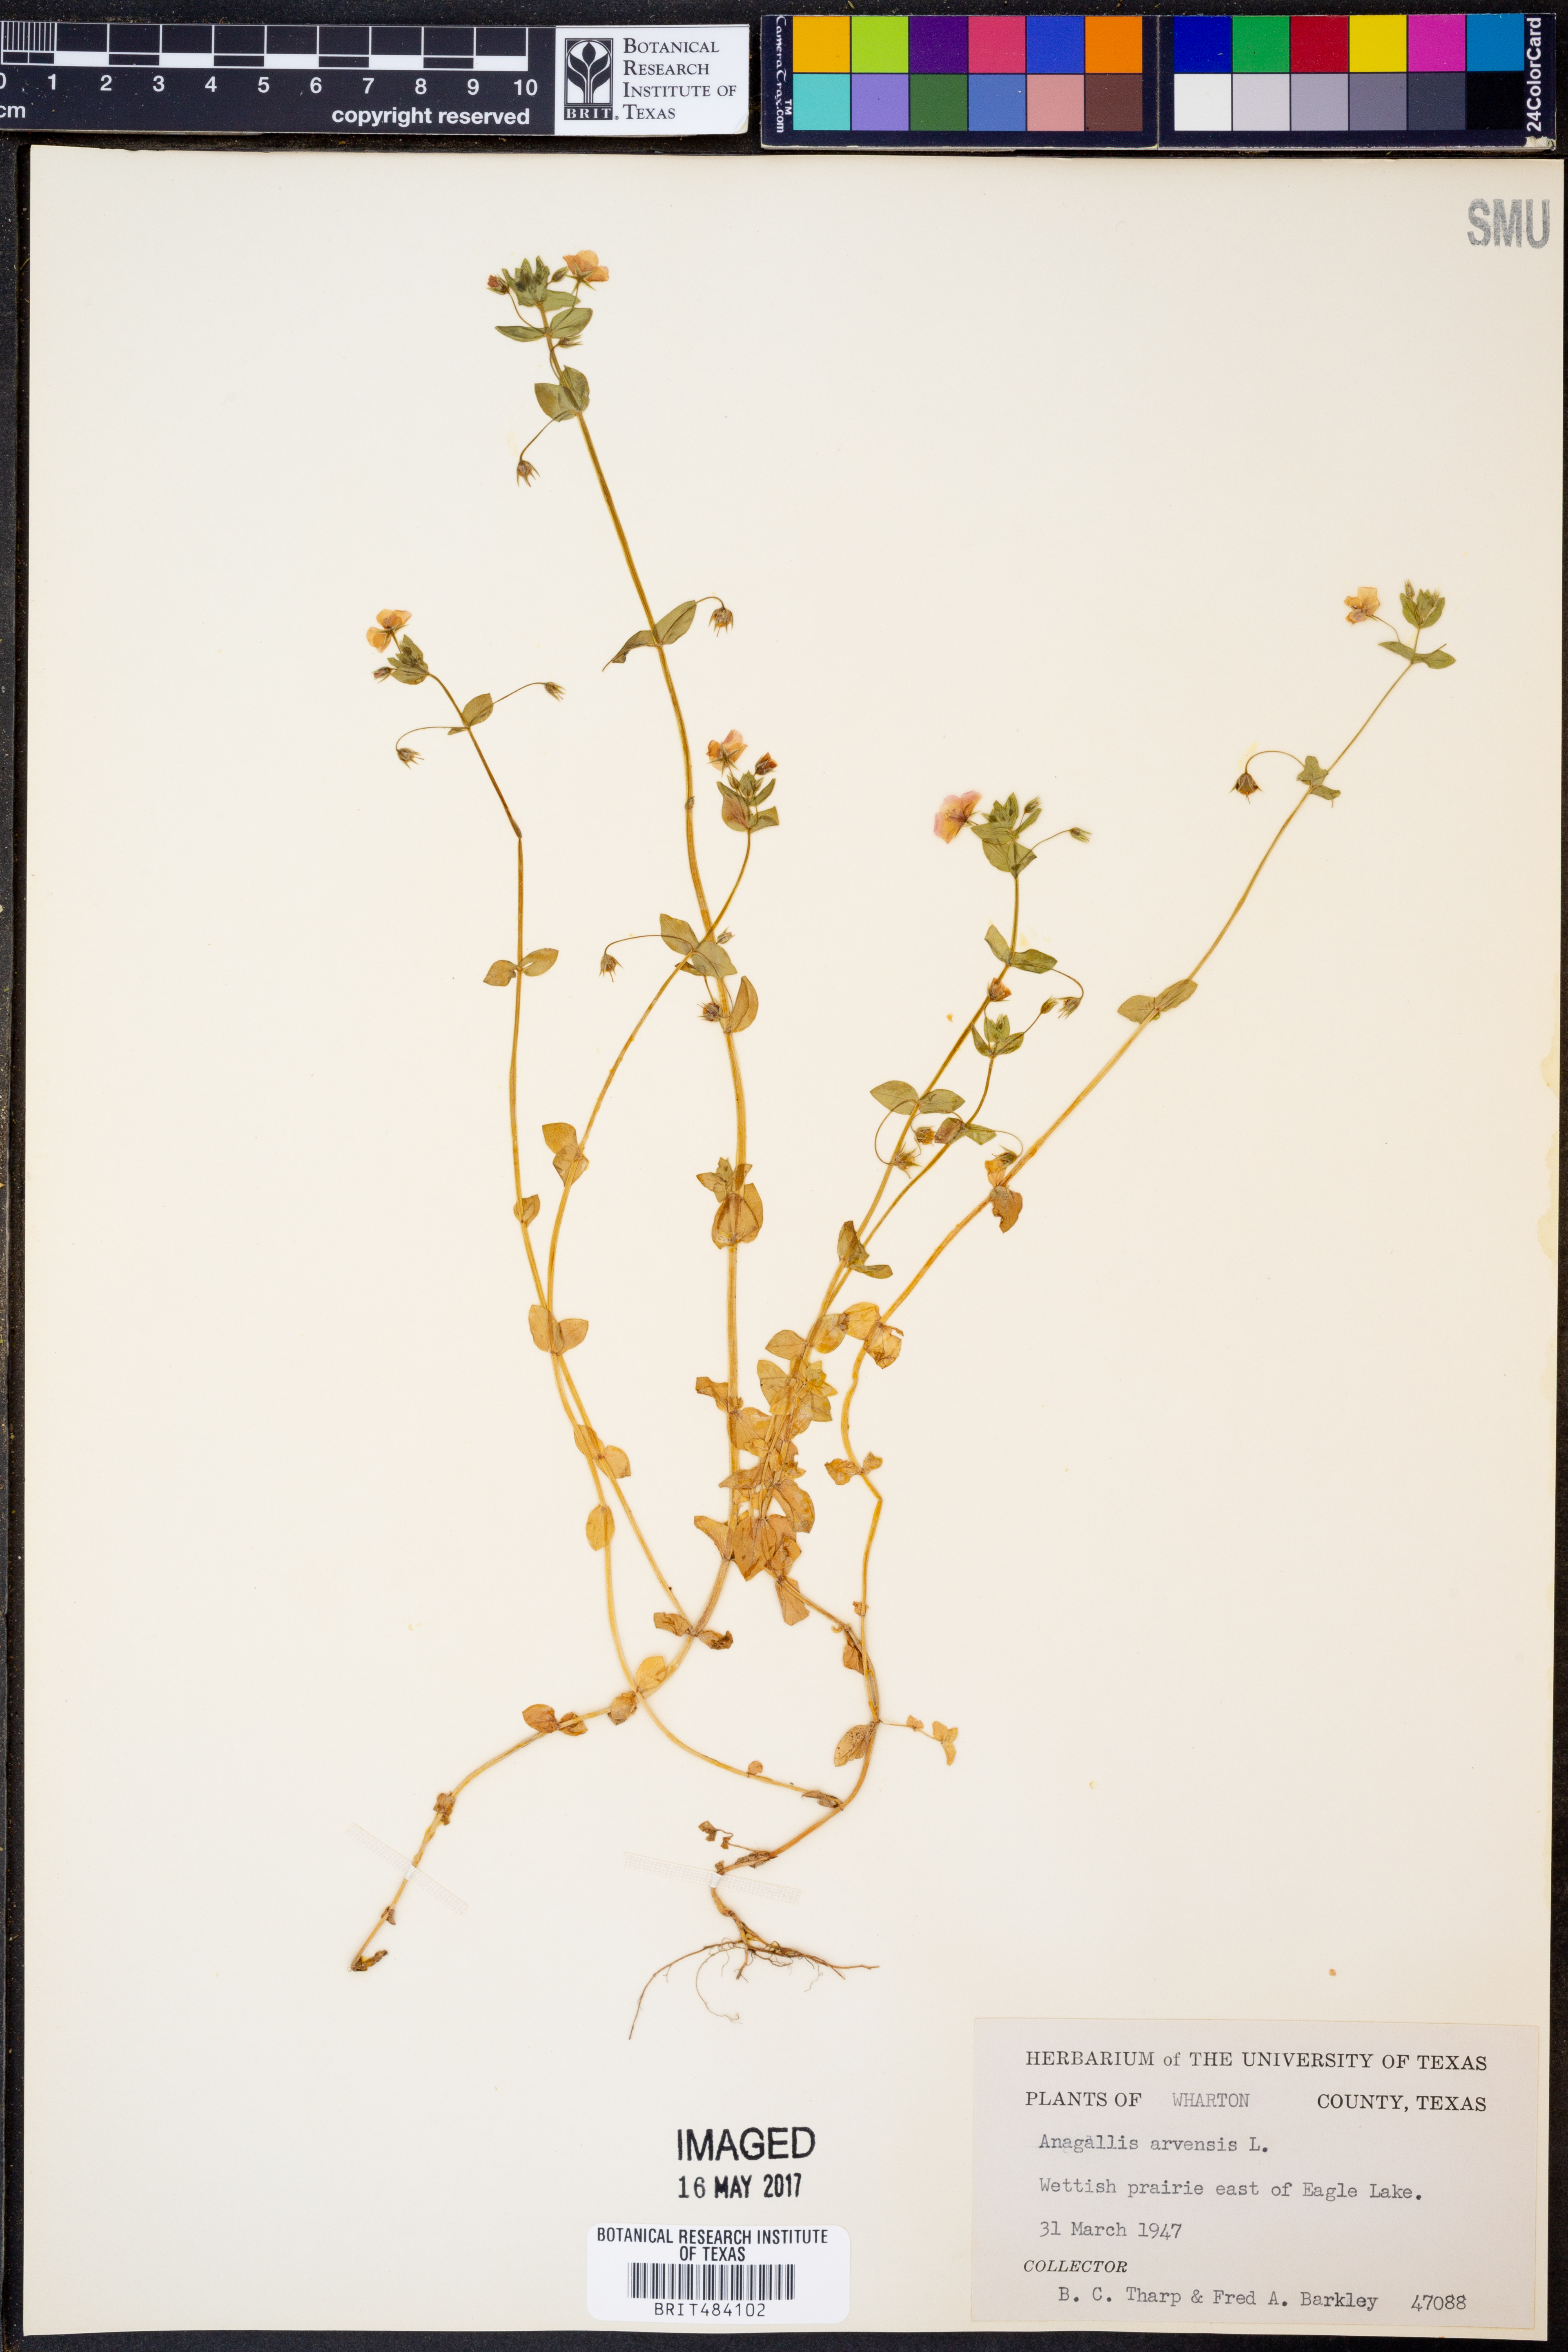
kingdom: Plantae
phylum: Tracheophyta
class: Magnoliopsida
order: Ericales
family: Primulaceae
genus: Lysimachia
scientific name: Lysimachia arvensis
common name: Scarlet pimpernel
